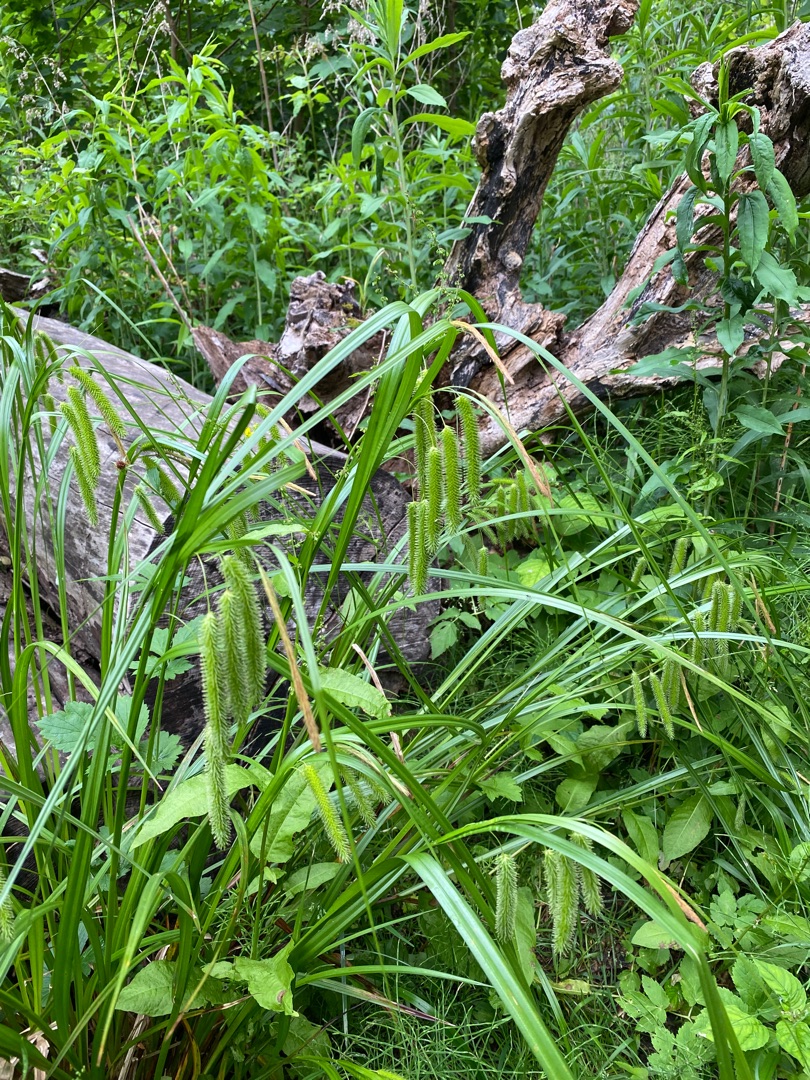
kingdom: Plantae
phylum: Tracheophyta
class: Liliopsida
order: Poales
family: Cyperaceae
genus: Carex
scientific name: Carex pseudocyperus
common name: Knippe-star
